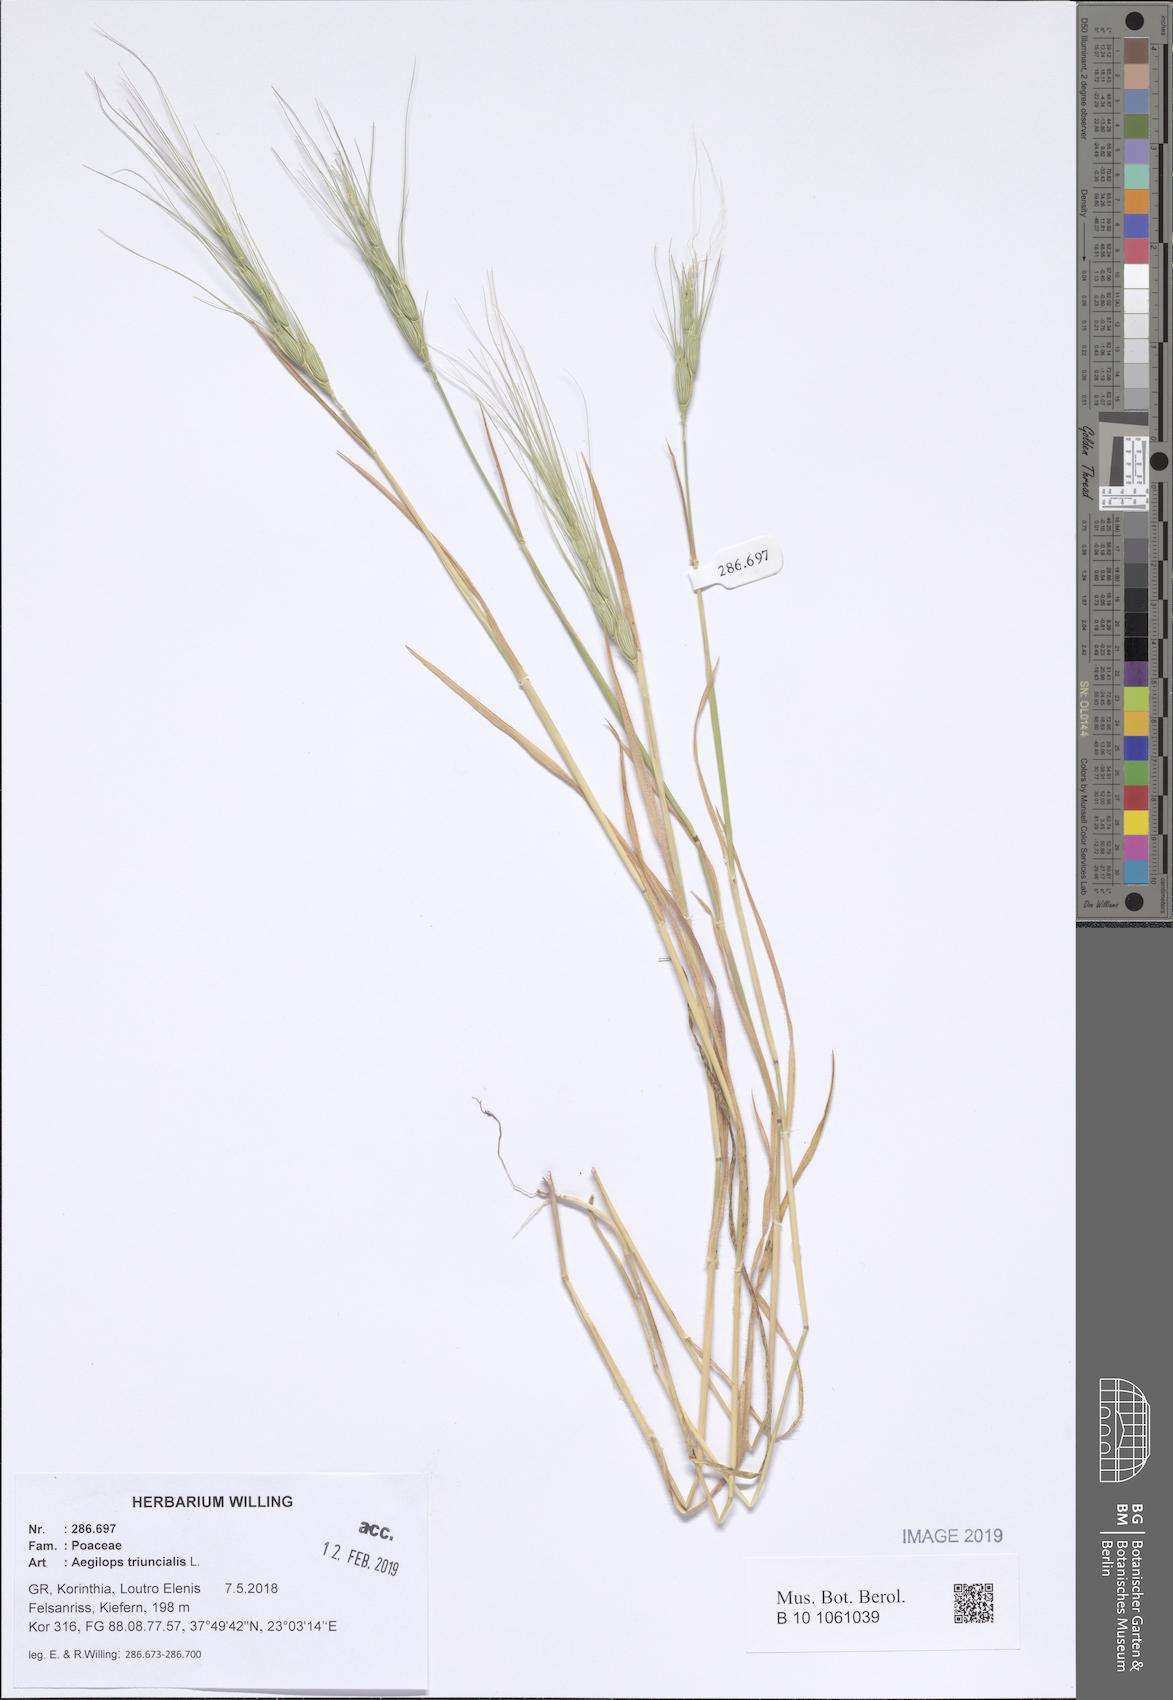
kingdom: Plantae
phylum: Tracheophyta
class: Liliopsida
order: Poales
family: Poaceae
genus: Aegilops
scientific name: Aegilops triuncialis
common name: Barb goat grass
